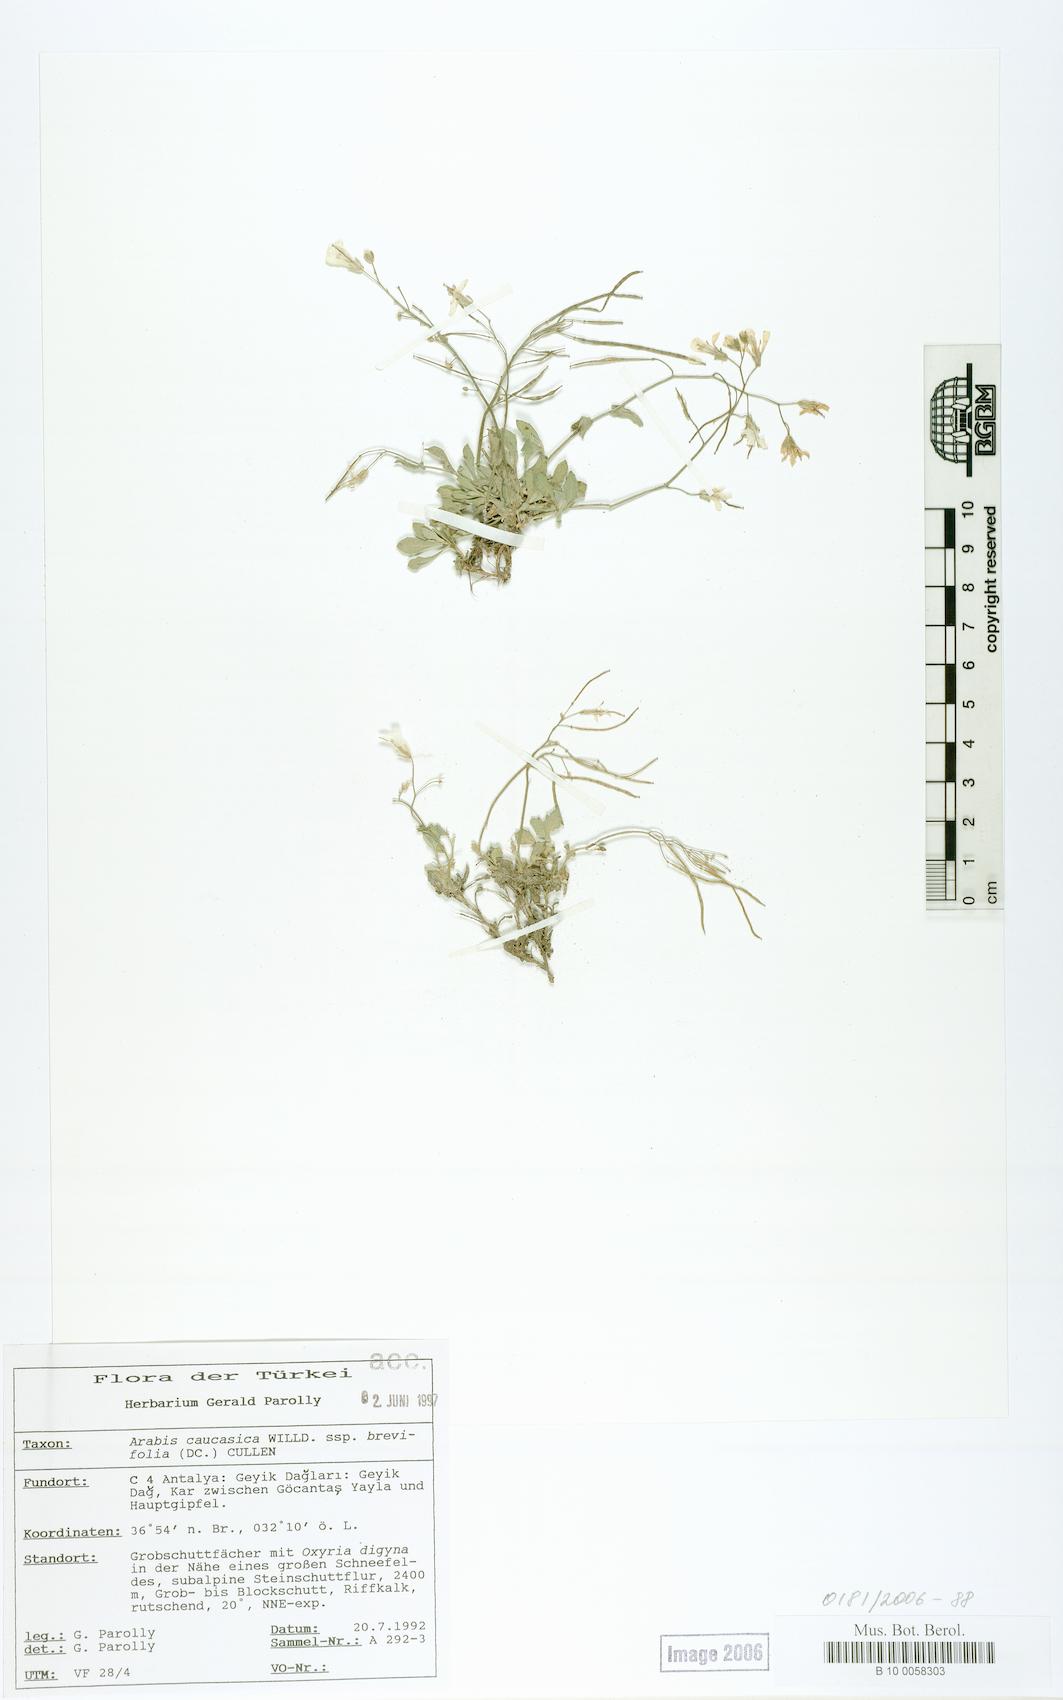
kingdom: Plantae
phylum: Tracheophyta
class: Magnoliopsida
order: Brassicales
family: Brassicaceae
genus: Arabis
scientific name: Arabis caucasica
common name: Gray rockcress
